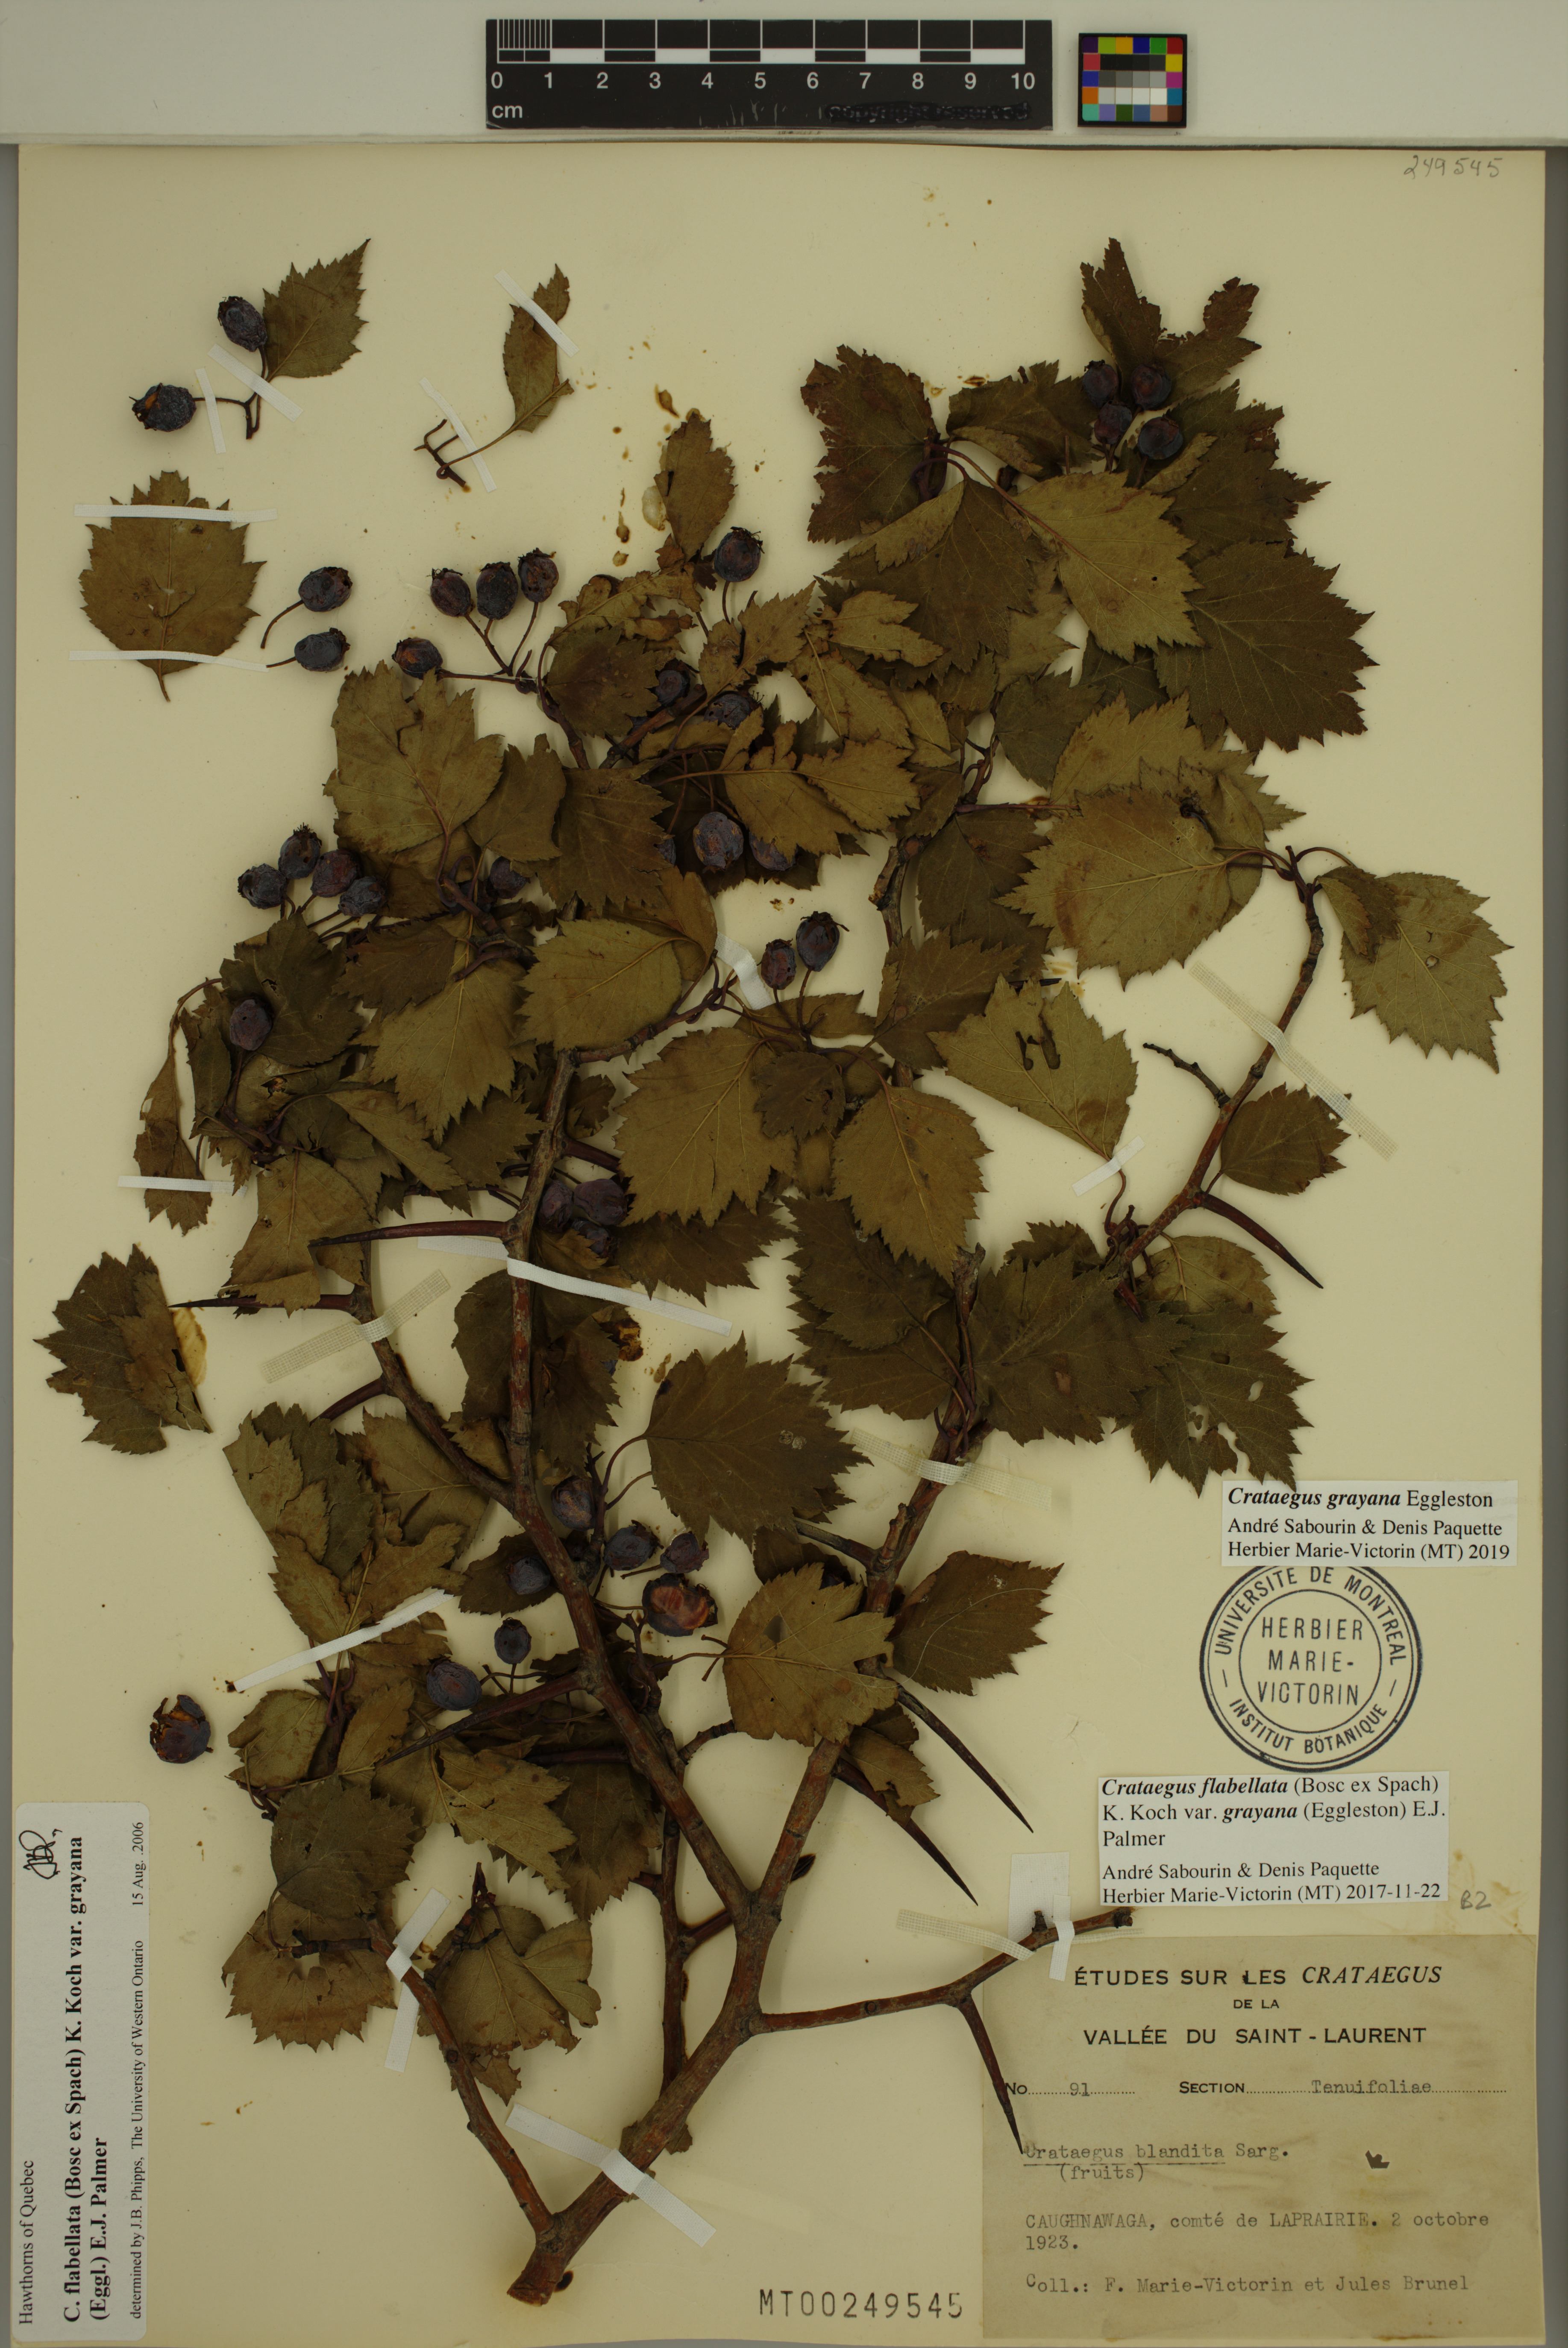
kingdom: Plantae
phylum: Tracheophyta
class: Magnoliopsida
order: Rosales
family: Rosaceae
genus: Crataegus
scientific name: Crataegus schuettei
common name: Schuette's hawthorn
